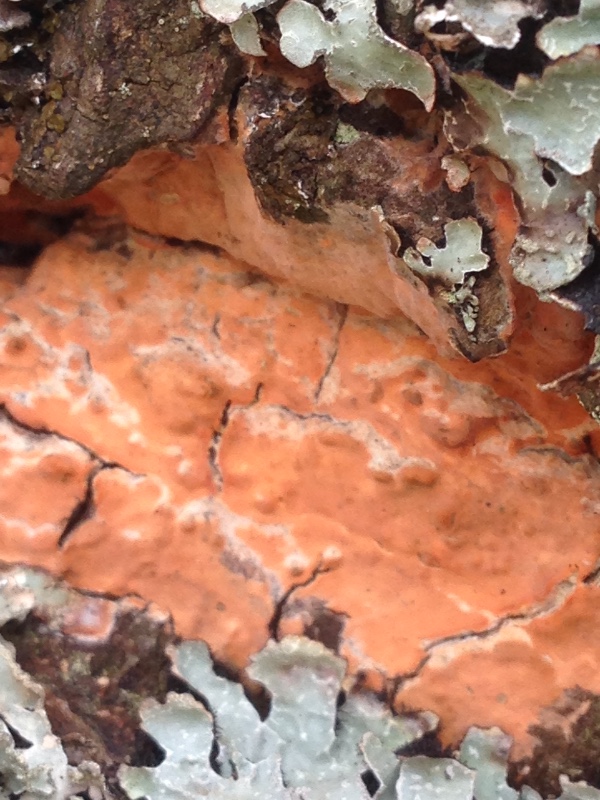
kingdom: Fungi
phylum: Basidiomycota
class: Agaricomycetes
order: Russulales
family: Peniophoraceae
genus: Peniophora
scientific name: Peniophora incarnata
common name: laksefarvet voksskind
